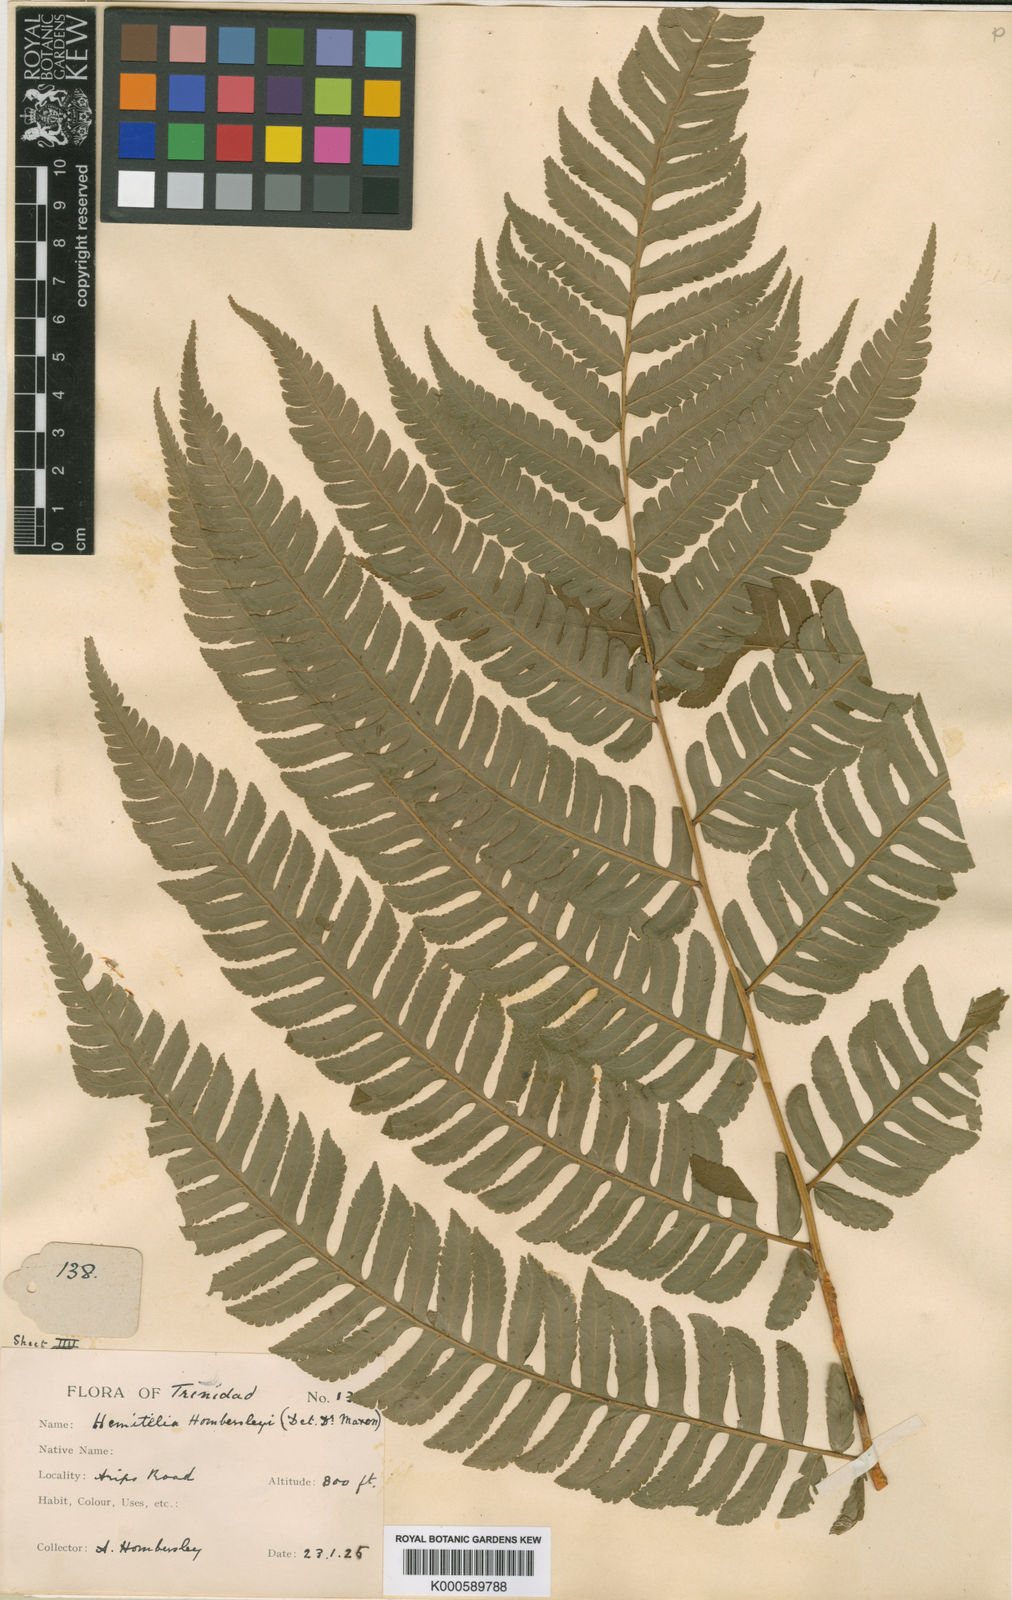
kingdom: Plantae
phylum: Tracheophyta
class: Polypodiopsida
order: Cyatheales
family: Cyatheaceae
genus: Cyathea
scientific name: Cyathea hombersleyi
